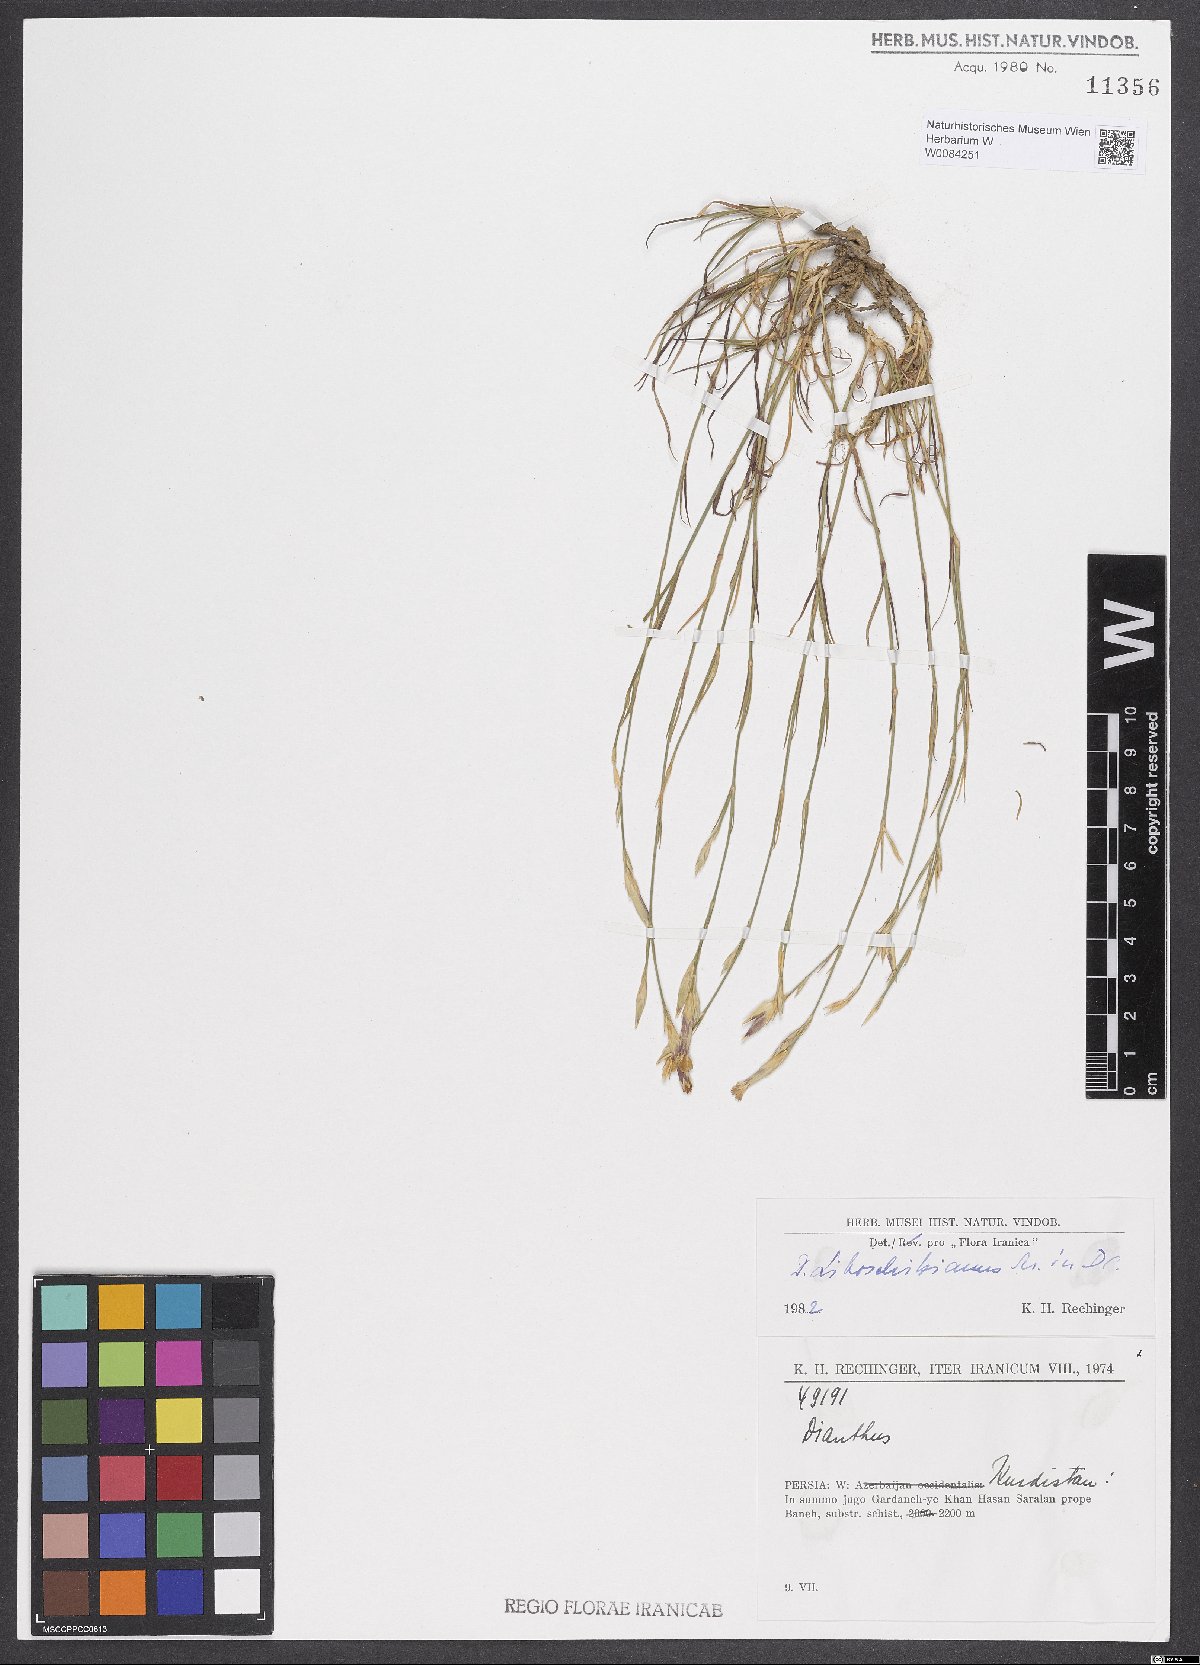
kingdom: Plantae
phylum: Tracheophyta
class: Magnoliopsida
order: Caryophyllales
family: Caryophyllaceae
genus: Dianthus
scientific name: Dianthus cretaceus
